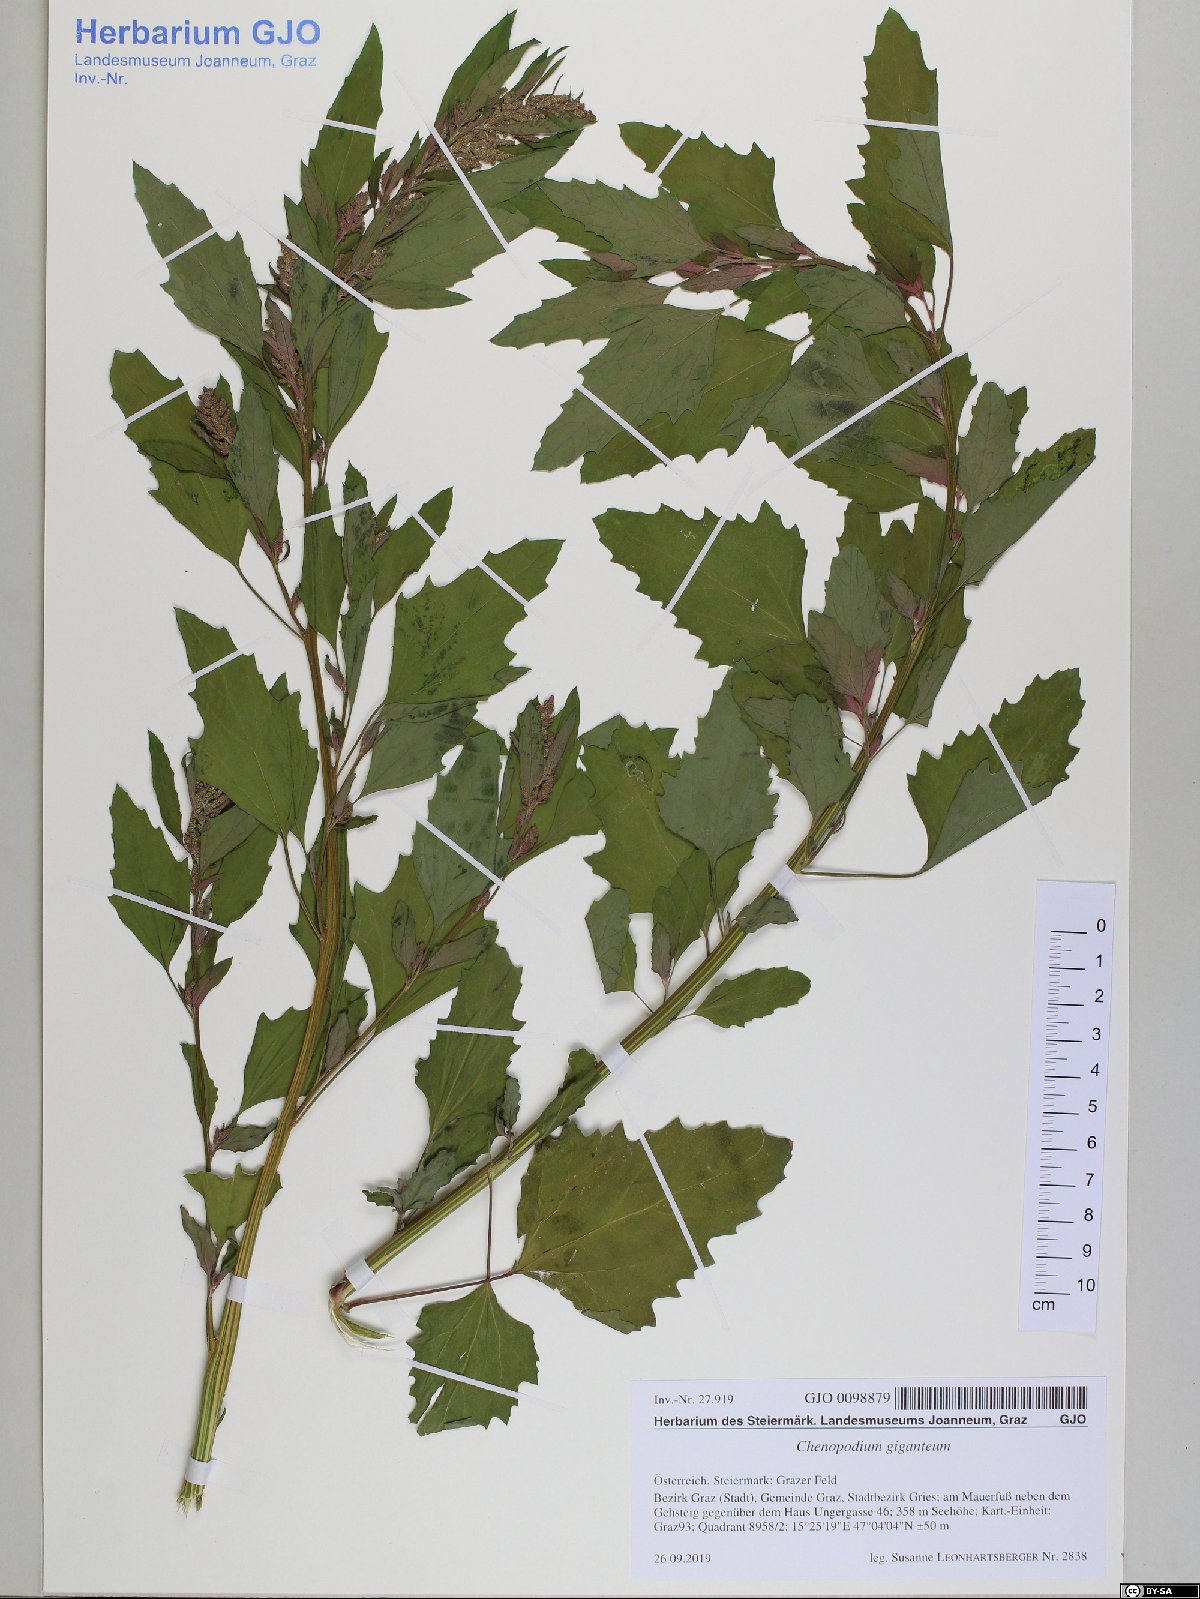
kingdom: Plantae
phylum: Tracheophyta
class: Magnoliopsida
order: Caryophyllales
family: Amaranthaceae
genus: Chenopodium
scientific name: Chenopodium giganteum
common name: Magentaspreen
